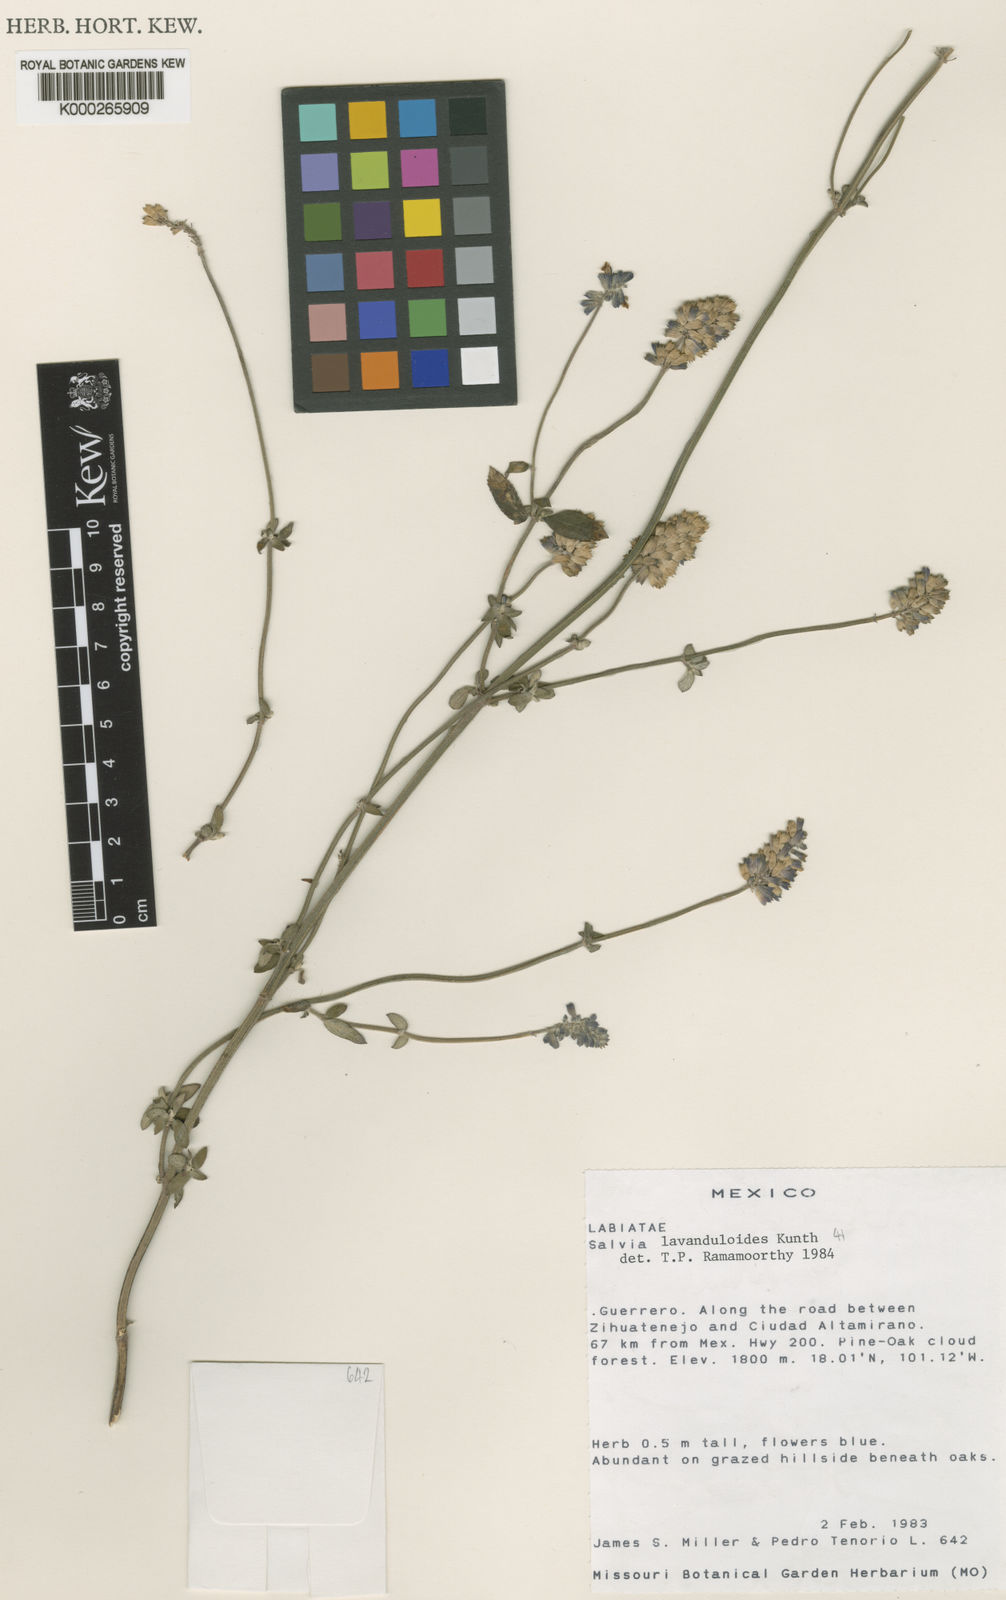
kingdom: Plantae
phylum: Tracheophyta
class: Magnoliopsida
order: Lamiales
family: Lamiaceae
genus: Salvia
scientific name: Salvia subobscura
